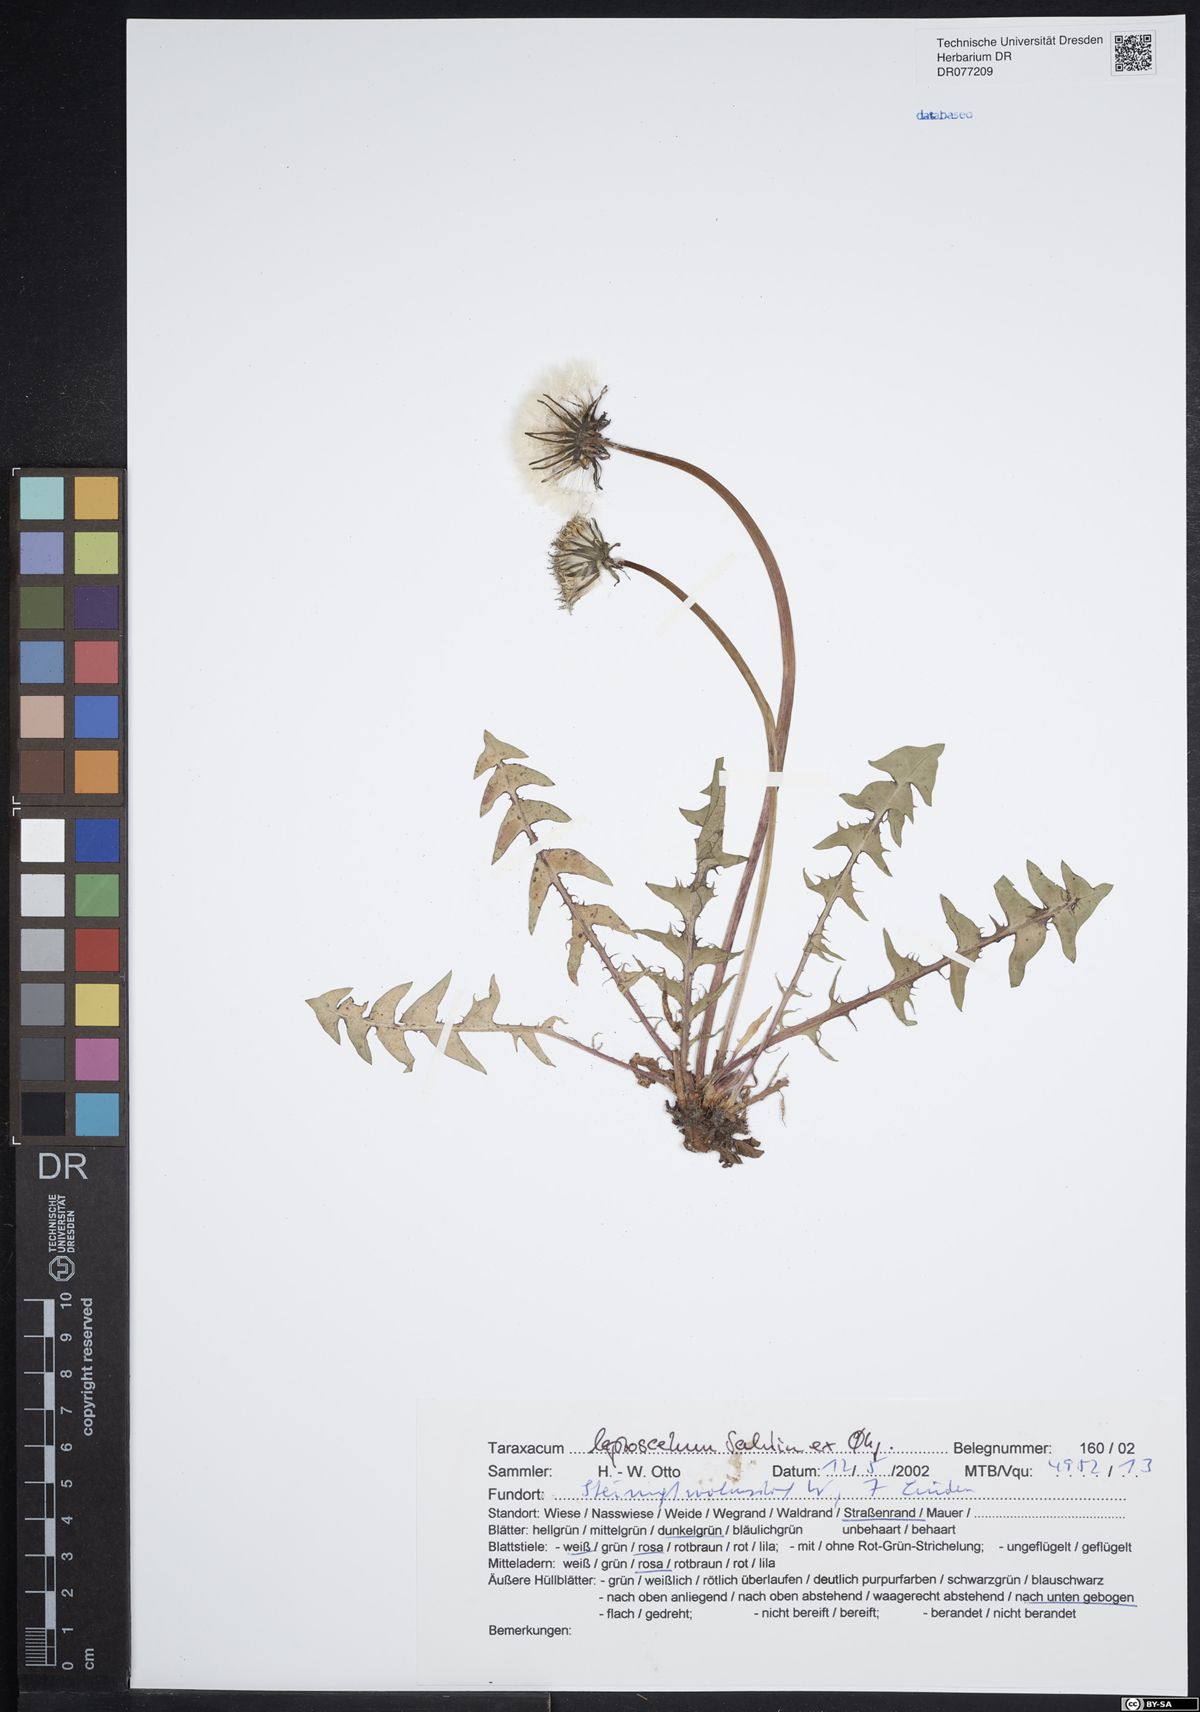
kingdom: Plantae
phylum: Tracheophyta
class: Magnoliopsida
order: Asterales
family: Asteraceae
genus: Taraxacum
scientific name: Taraxacum leptoscelum
